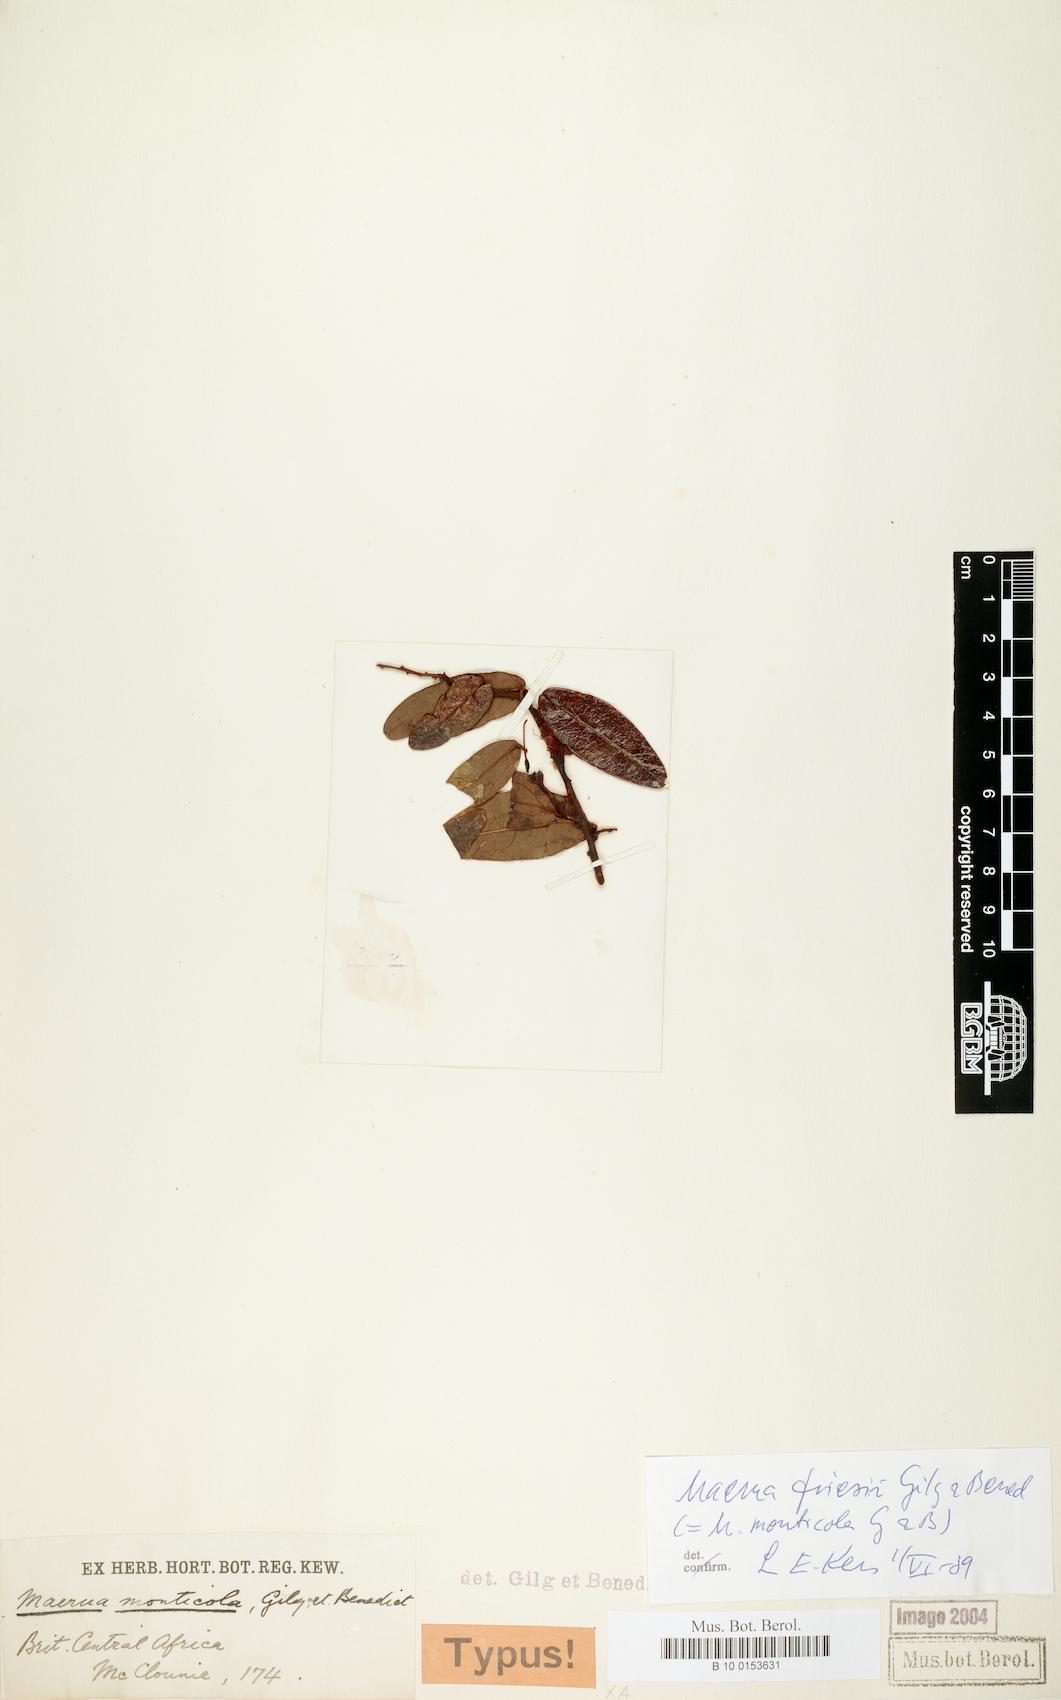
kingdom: Plantae
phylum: Tracheophyta
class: Magnoliopsida
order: Brassicales
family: Capparaceae
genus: Maerua
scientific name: Maerua friesii
